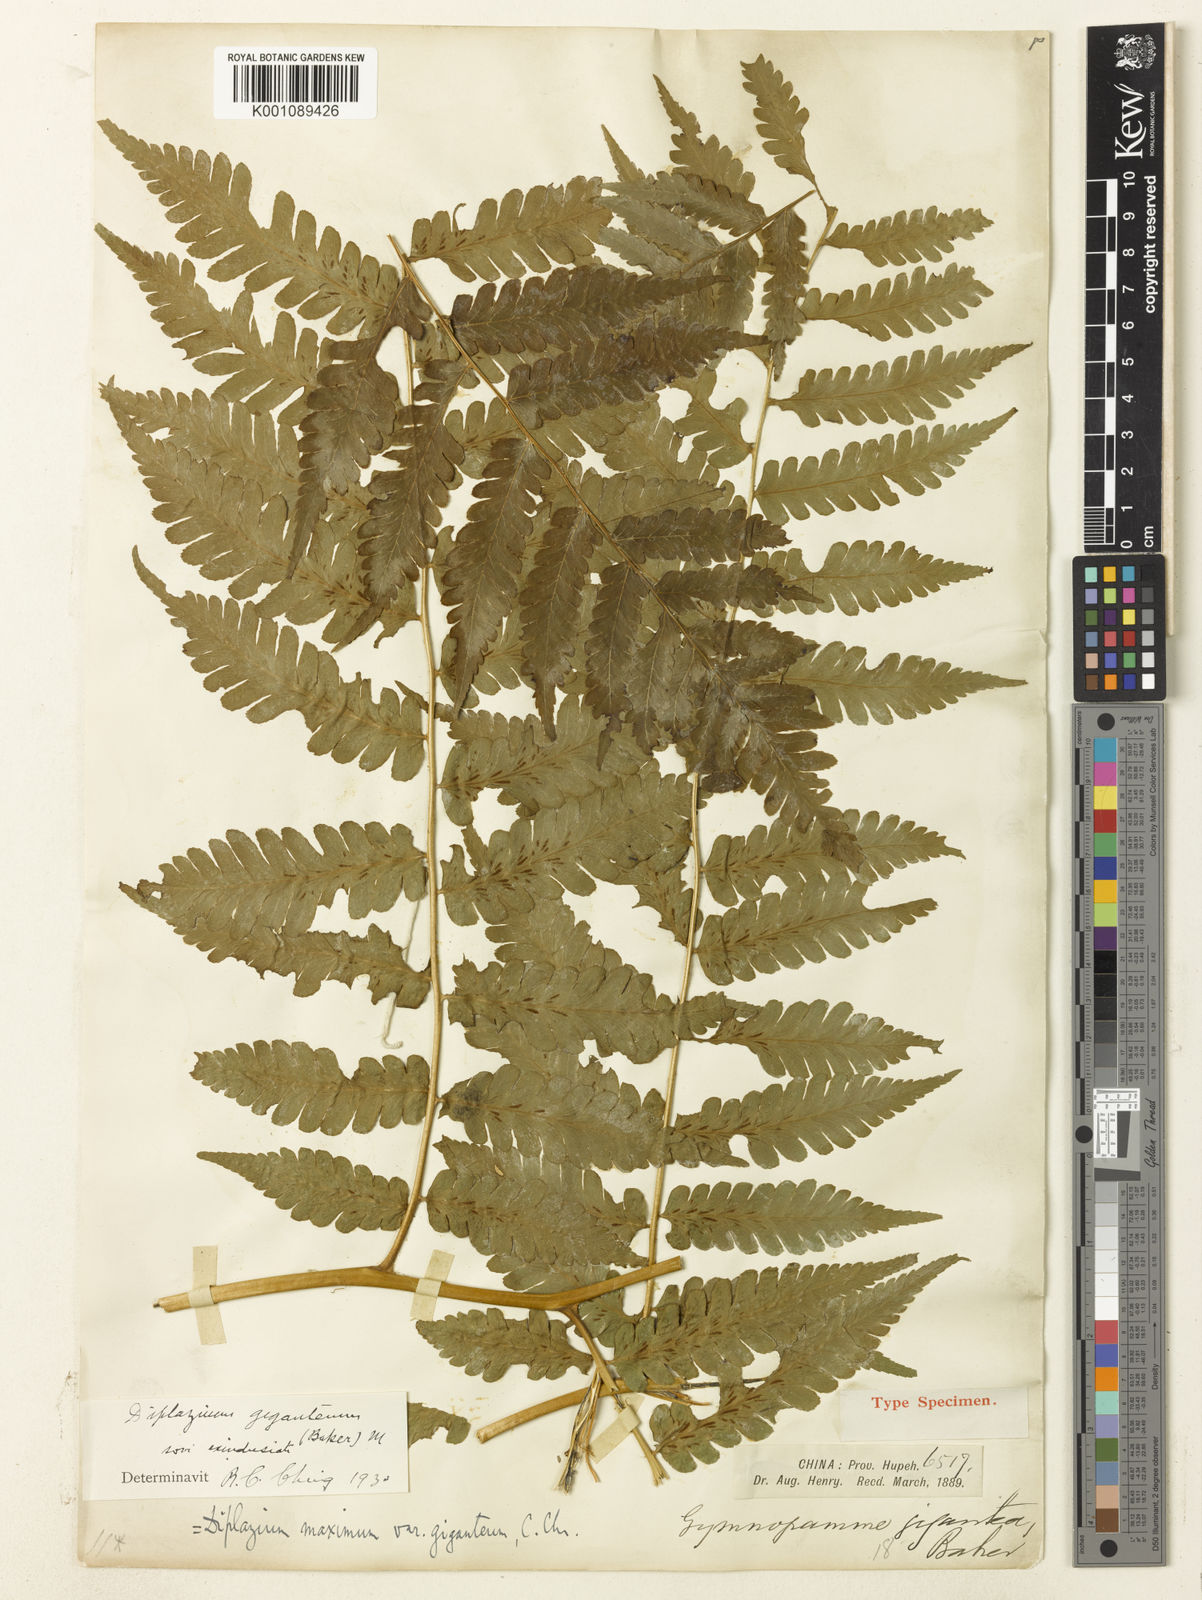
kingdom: Plantae
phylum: Tracheophyta
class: Polypodiopsida
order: Polypodiales
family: Athyriaceae
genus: Diplazium
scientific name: Diplazium maximum
